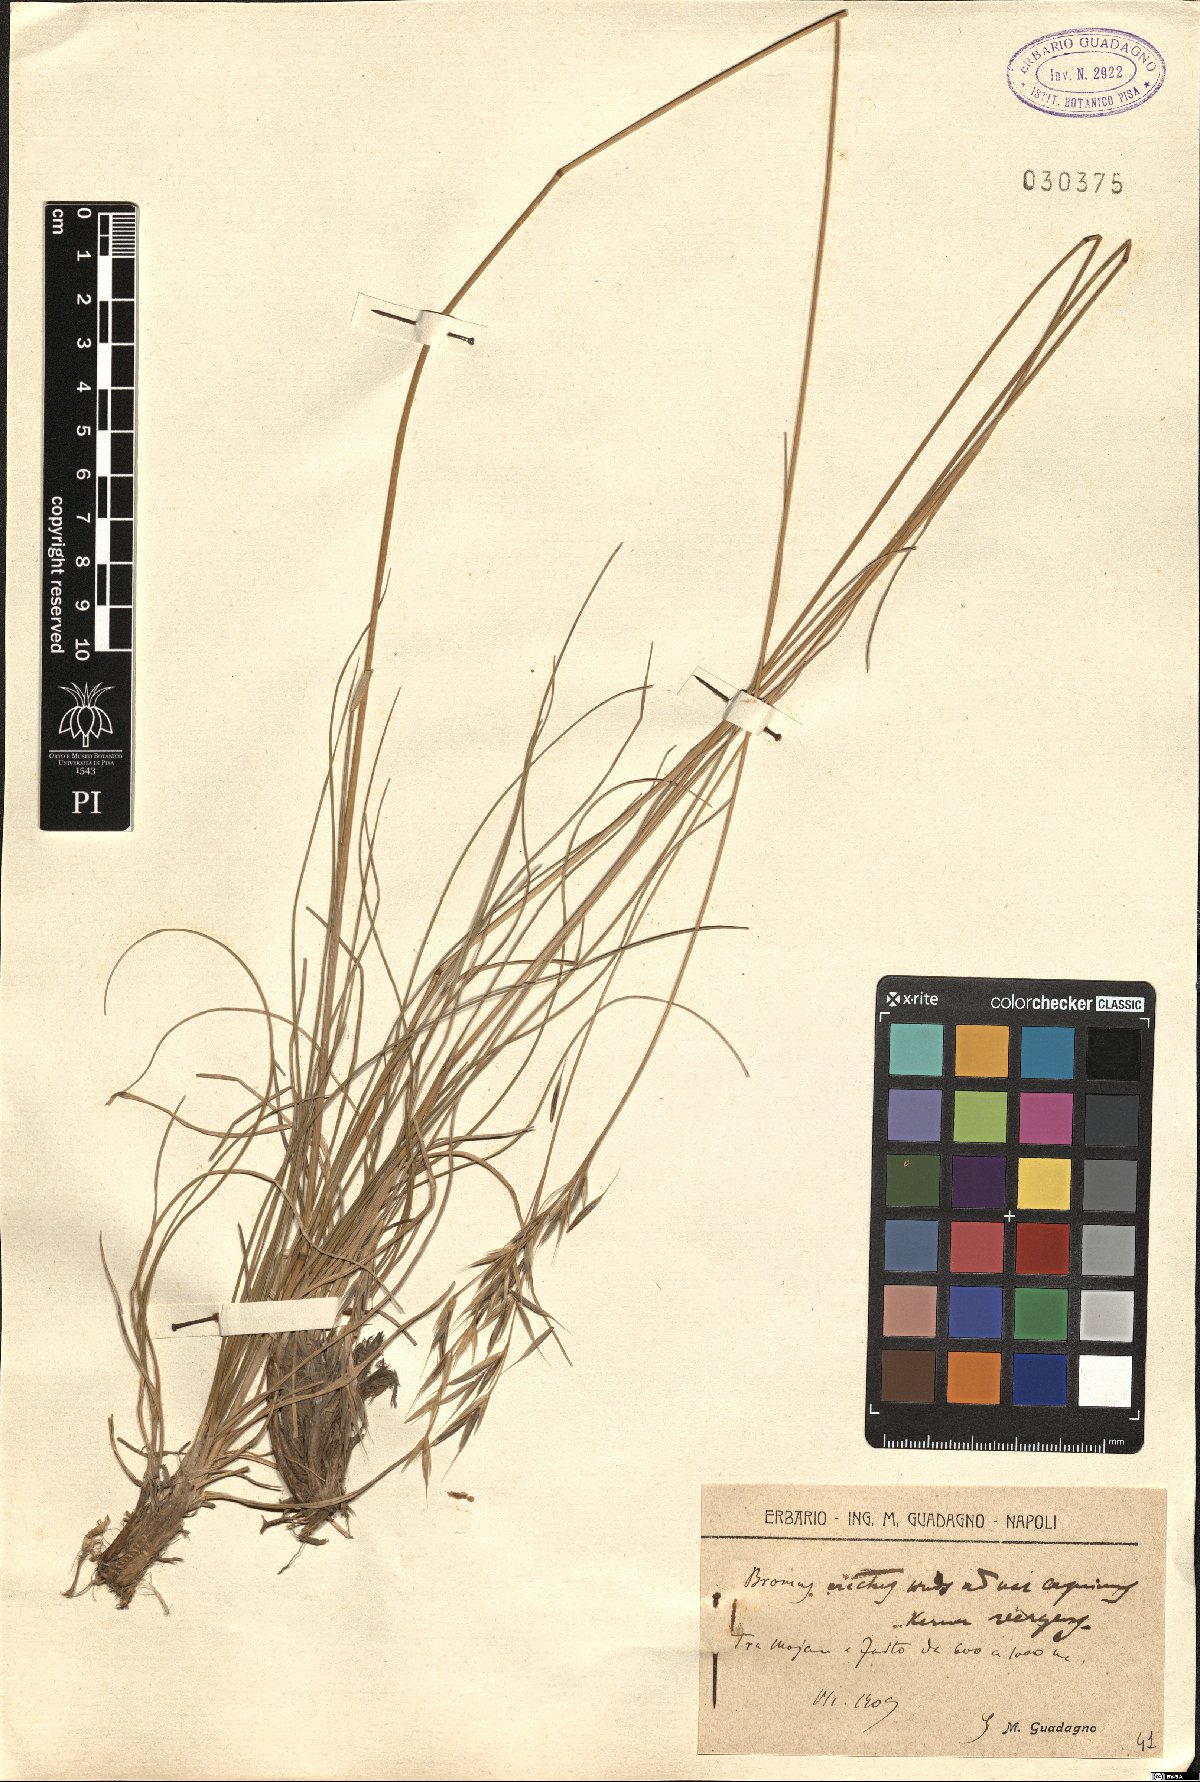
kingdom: Plantae
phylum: Tracheophyta
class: Liliopsida
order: Poales
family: Poaceae
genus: Bromus
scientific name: Bromus erectus
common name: Erect brome
